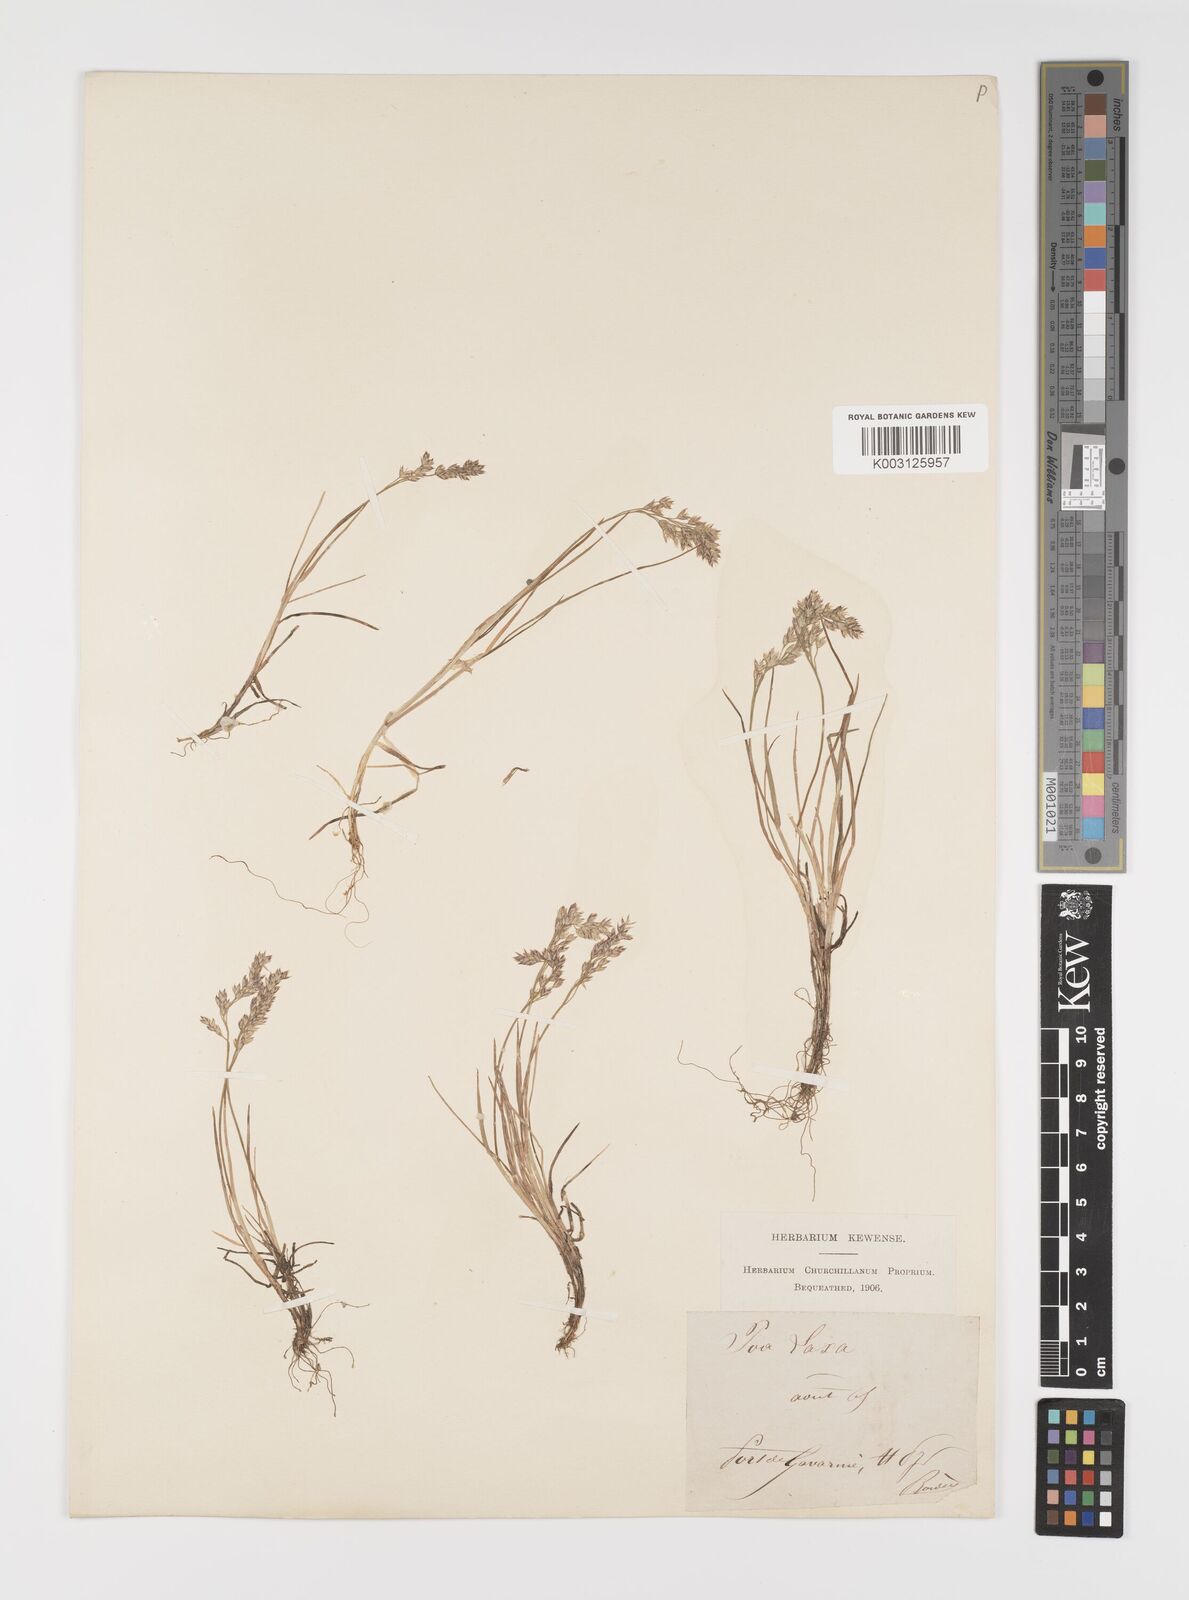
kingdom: Plantae
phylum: Tracheophyta
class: Liliopsida
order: Poales
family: Poaceae
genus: Poa
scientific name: Poa laxa
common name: Lax bluegrass
